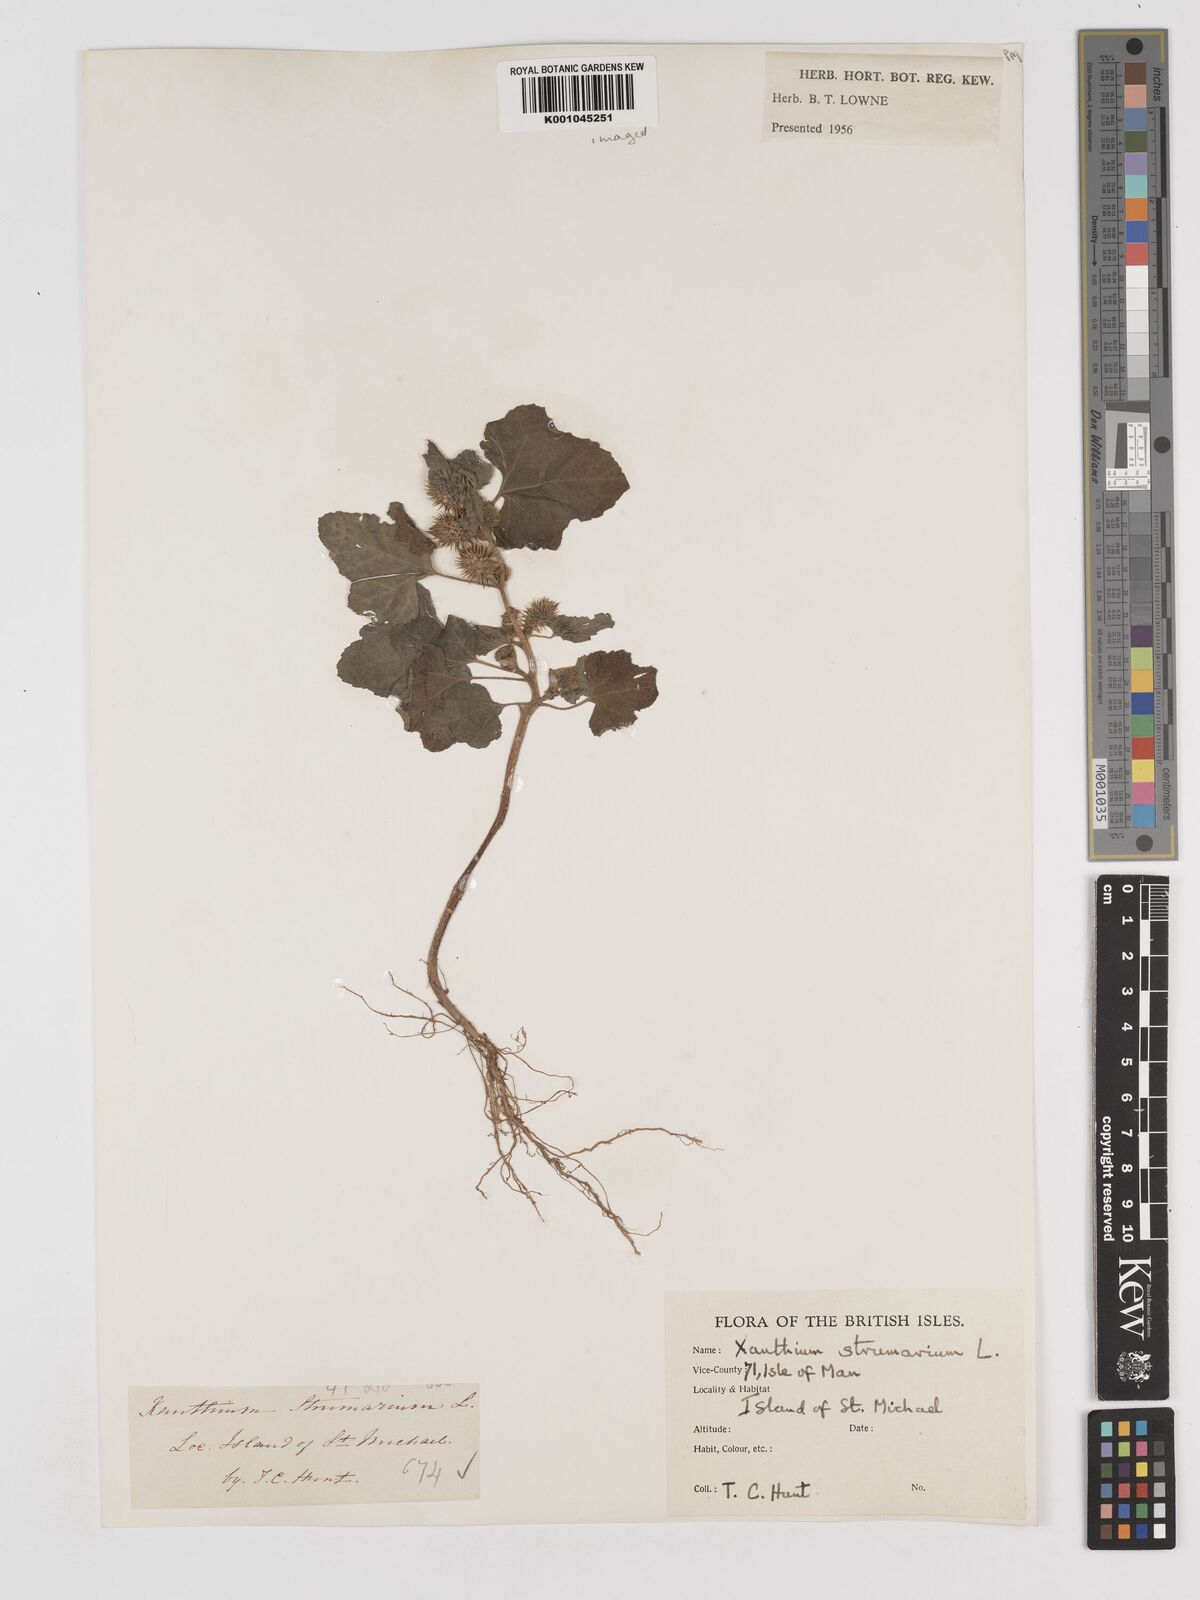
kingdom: Plantae
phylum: Tracheophyta
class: Magnoliopsida
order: Asterales
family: Asteraceae
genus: Xanthium
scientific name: Xanthium strumarium
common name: Rough cocklebur
